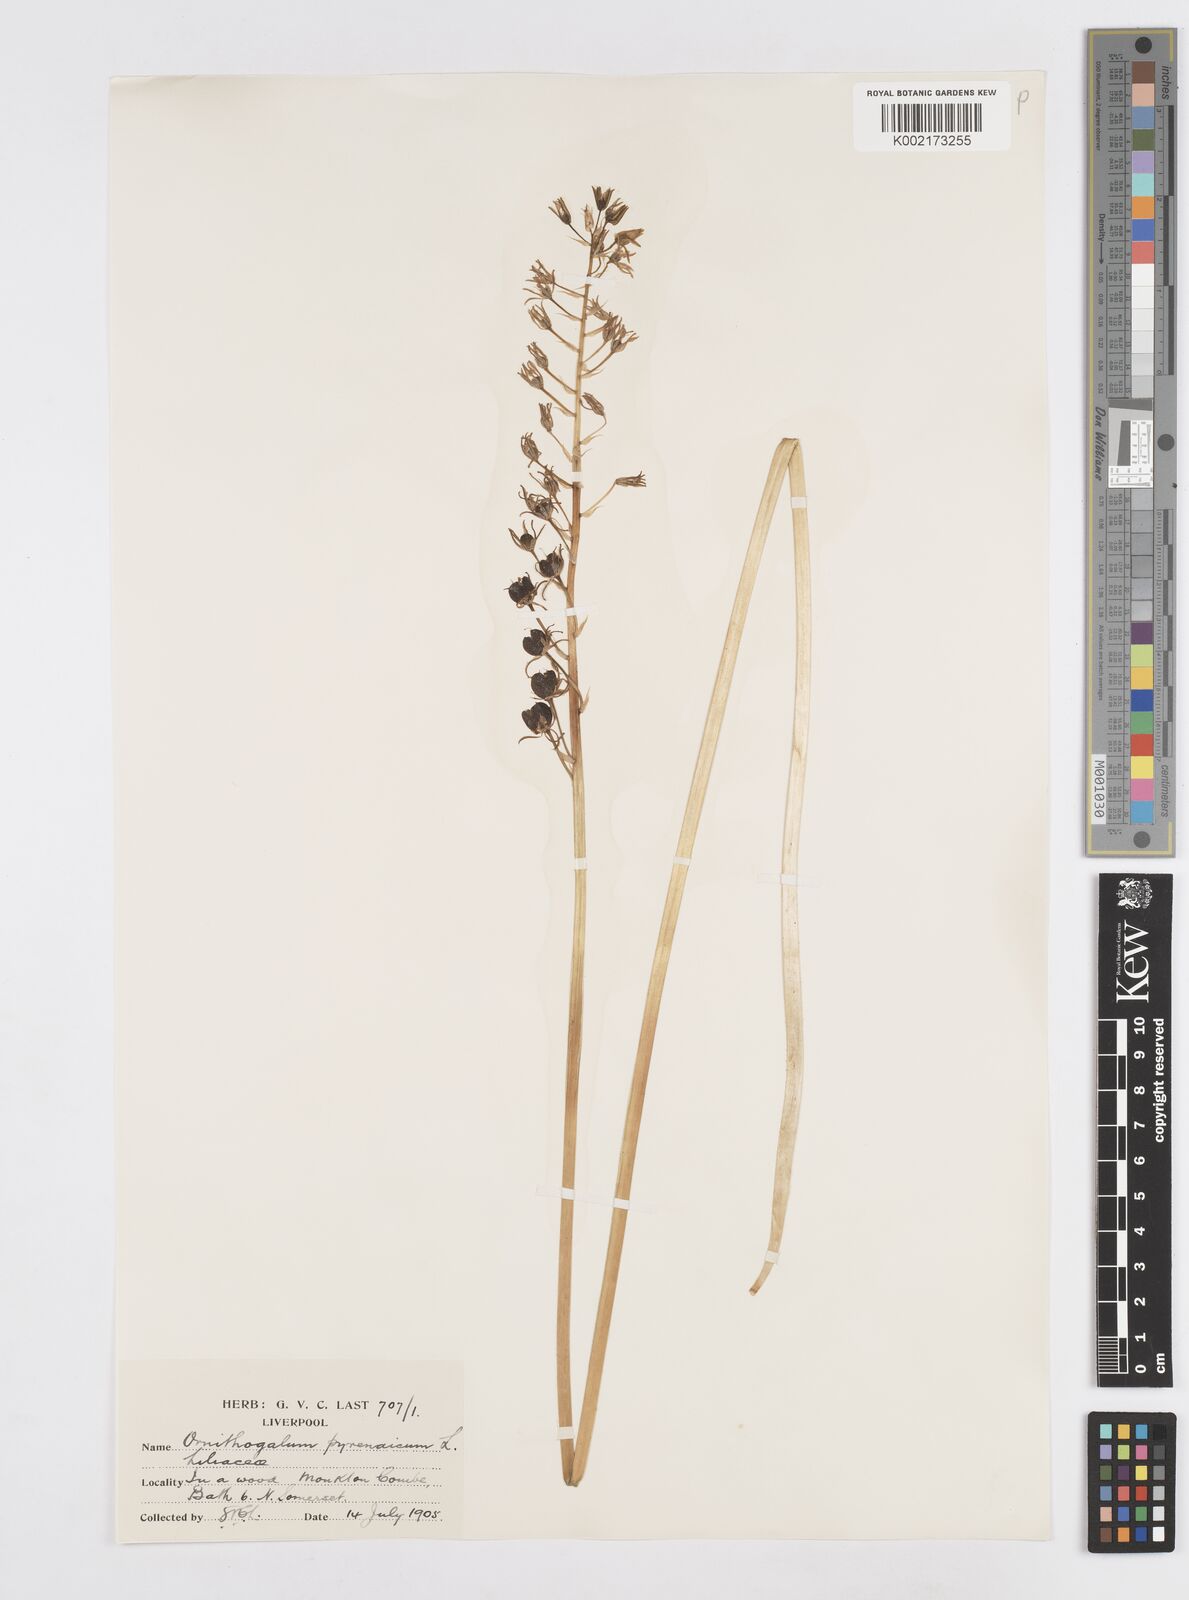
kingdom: Plantae
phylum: Tracheophyta
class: Liliopsida
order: Asparagales
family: Asparagaceae
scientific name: Asparagaceae
